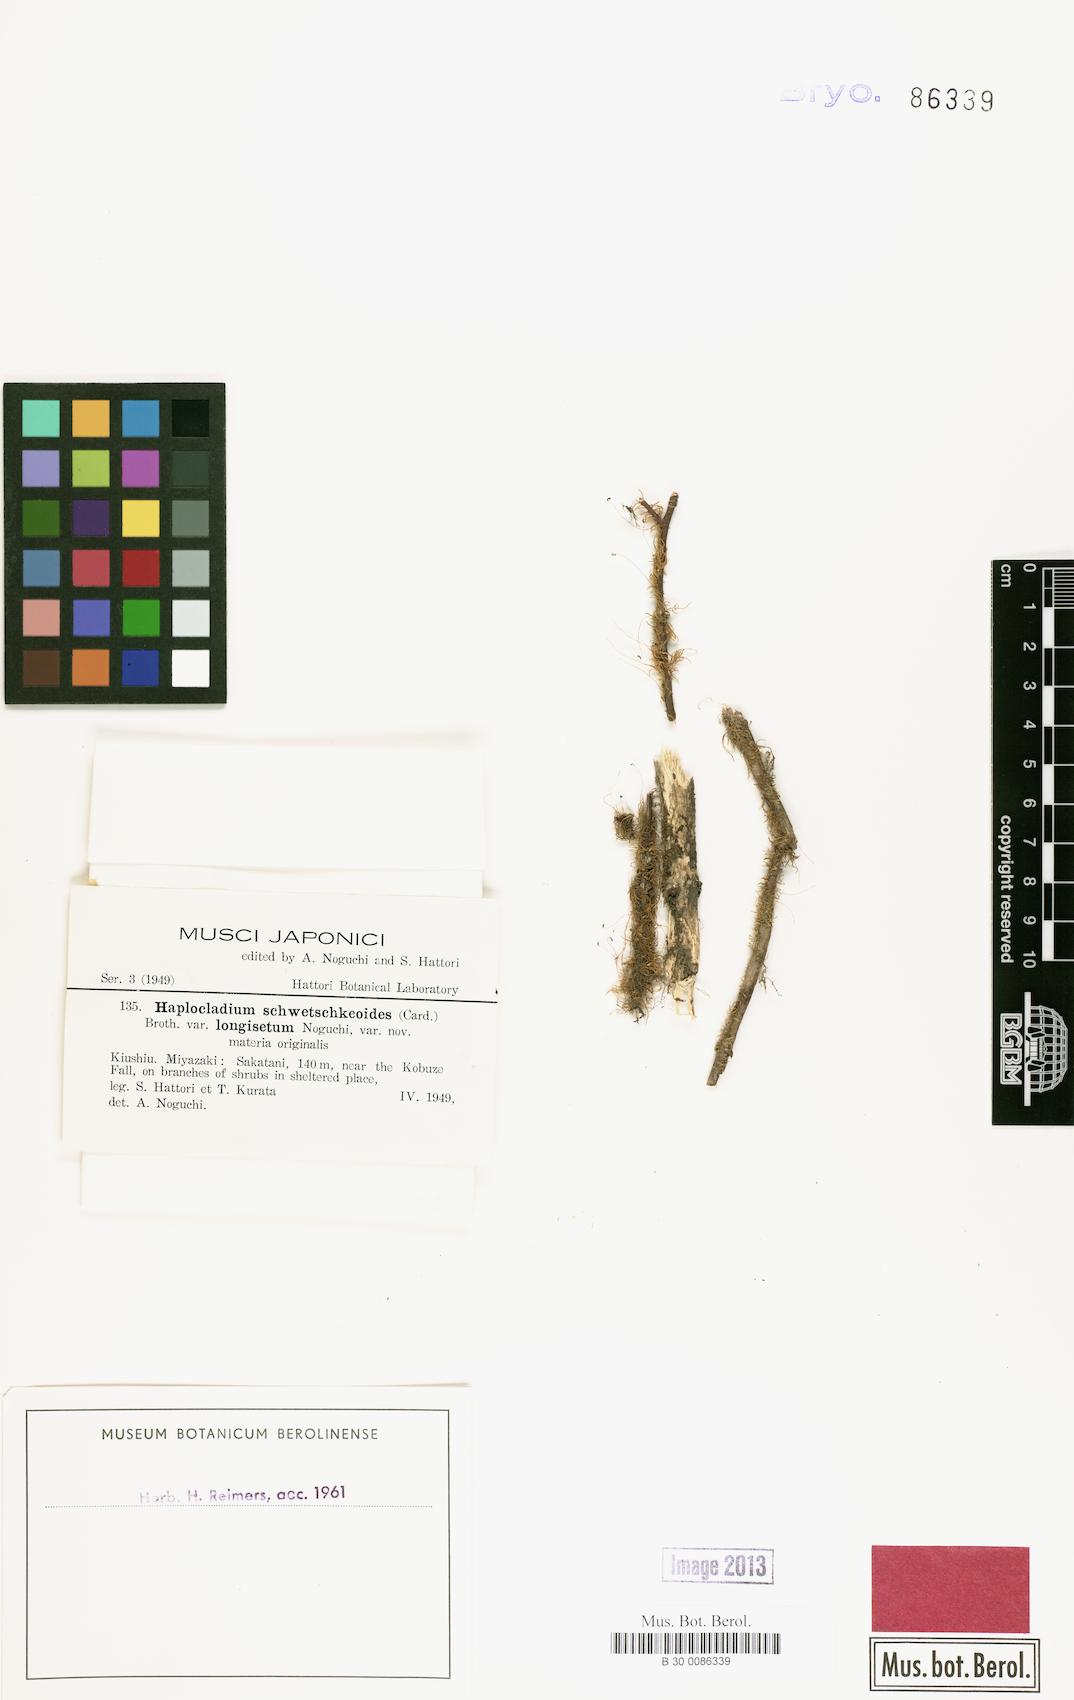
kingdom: Plantae
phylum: Bryophyta
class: Bryopsida
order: Hypnales
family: Leskeaceae
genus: Haplocladium
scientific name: Haplocladium angustifolium
